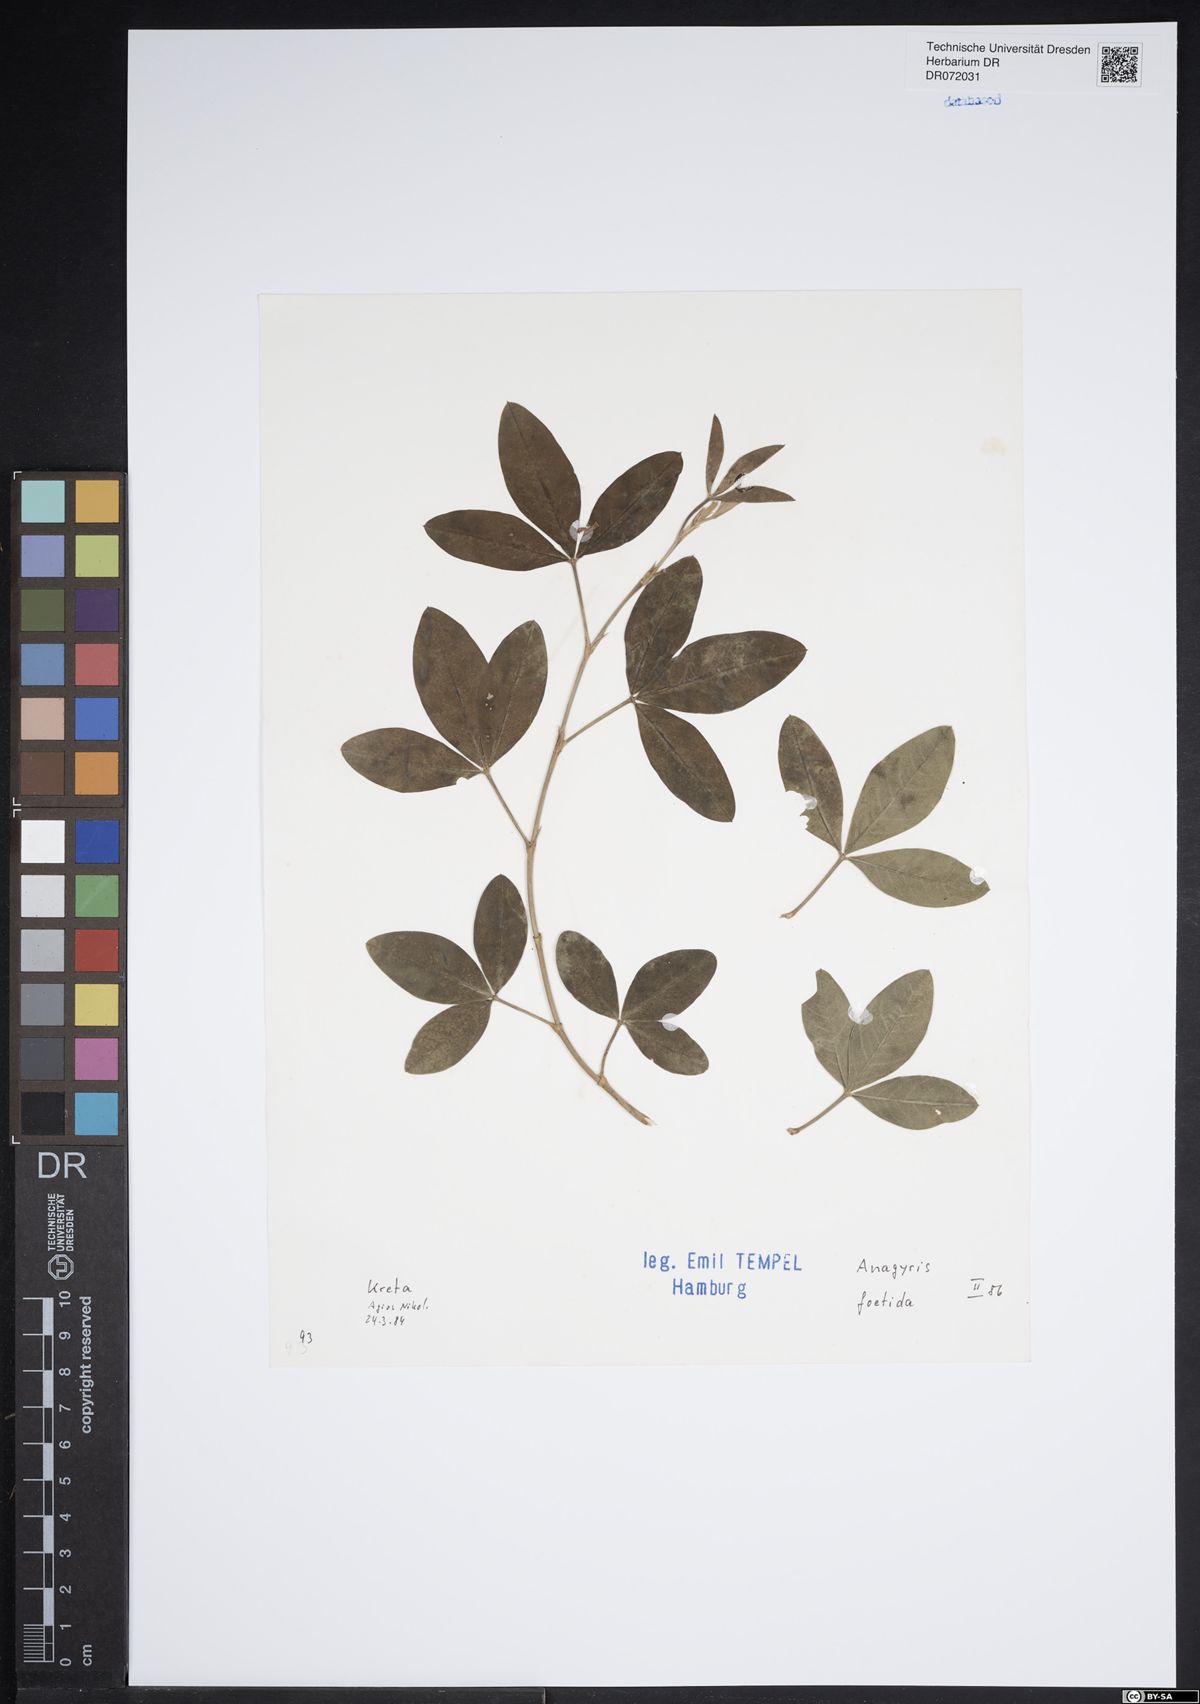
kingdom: Plantae
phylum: Tracheophyta
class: Magnoliopsida
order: Fabales
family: Fabaceae
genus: Anagyris
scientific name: Anagyris foetida
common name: Stinking bean trefoil
